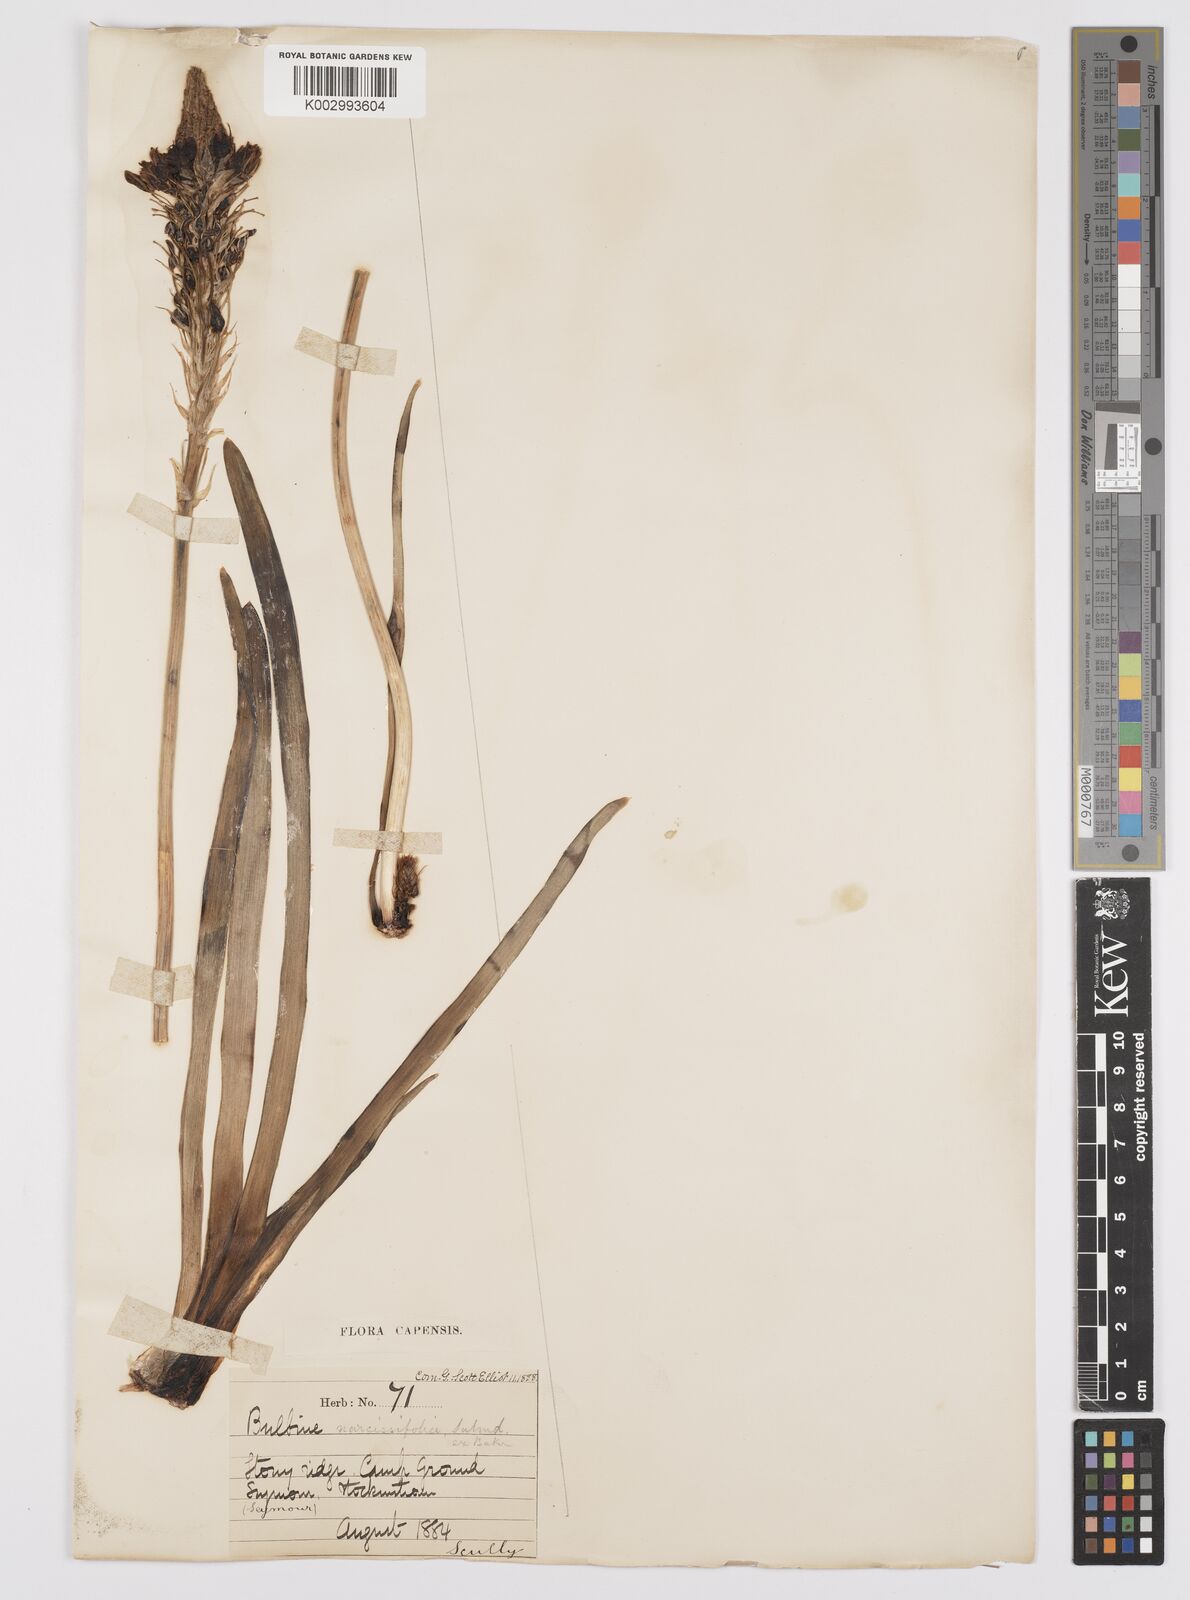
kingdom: Plantae
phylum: Tracheophyta
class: Liliopsida
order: Asparagales
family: Asphodelaceae
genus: Bulbine
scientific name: Bulbine narcissifolia
